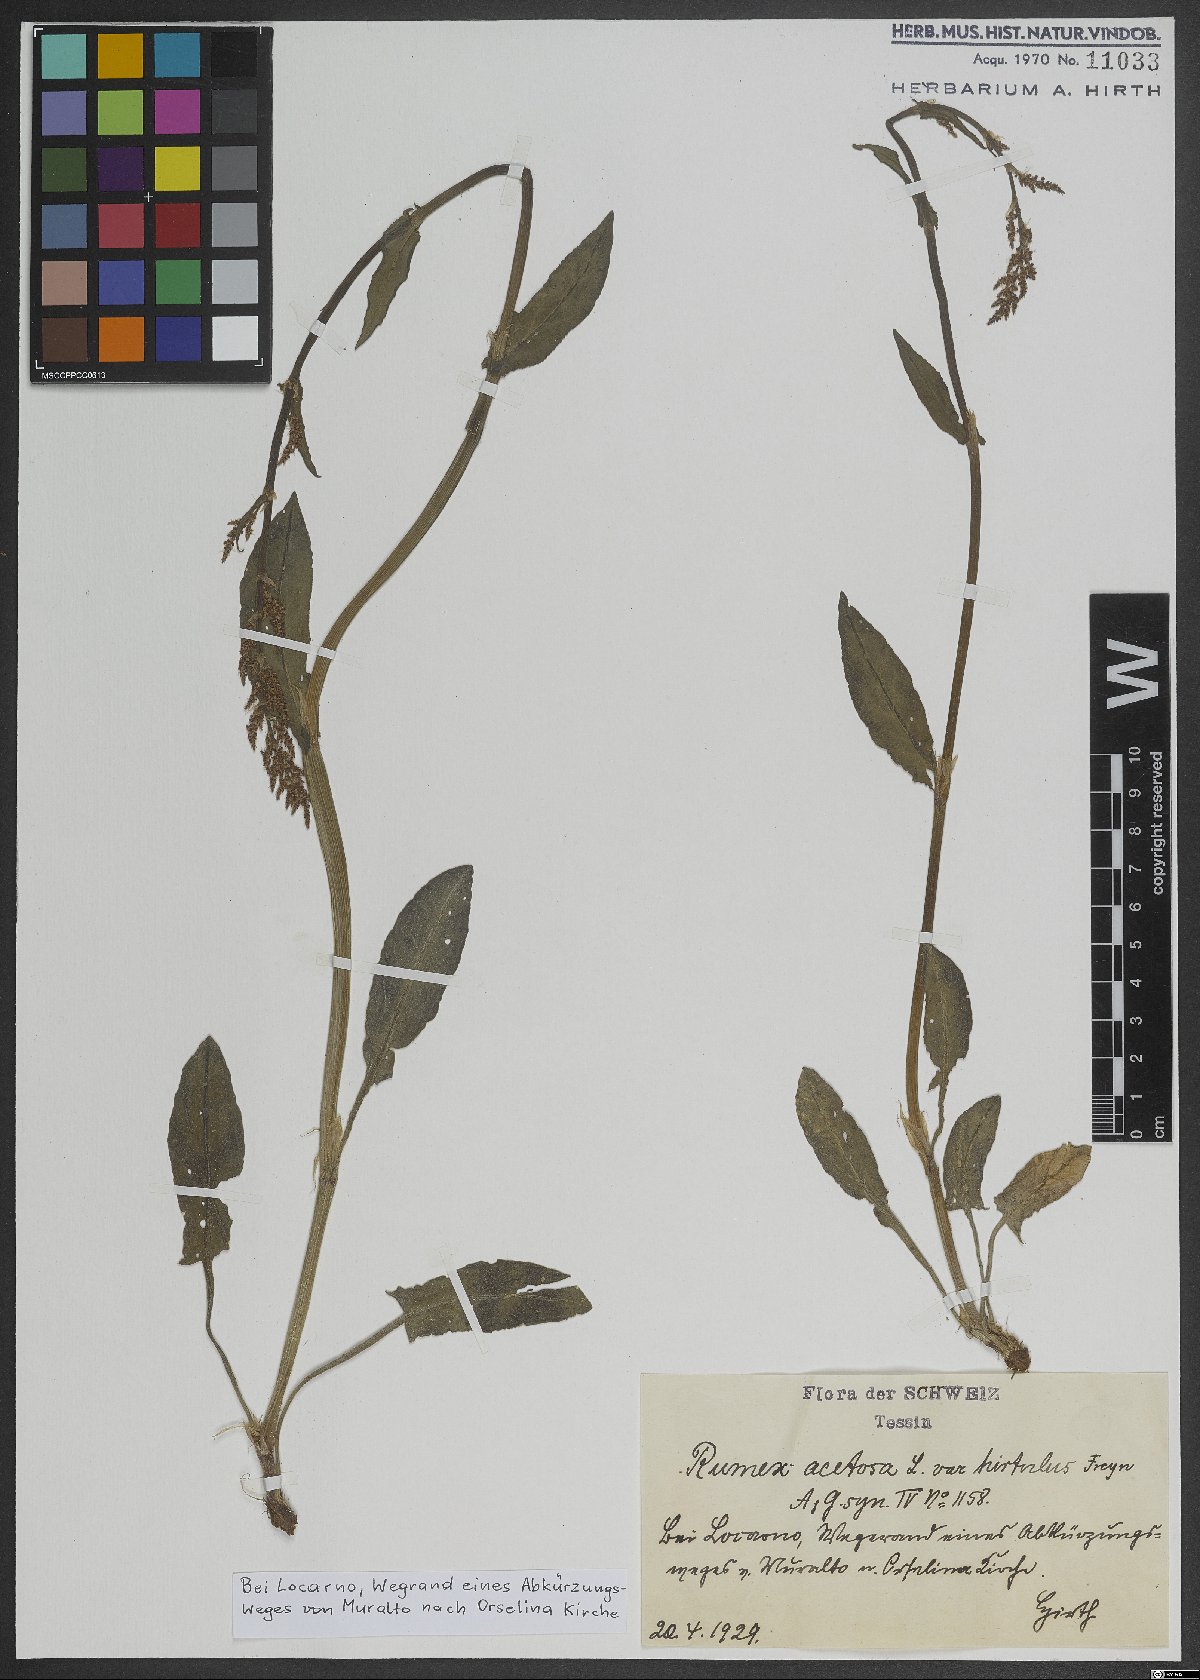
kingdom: Plantae
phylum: Tracheophyta
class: Magnoliopsida
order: Caryophyllales
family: Polygonaceae
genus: Rumex
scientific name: Rumex acetosa
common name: Garden sorrel
